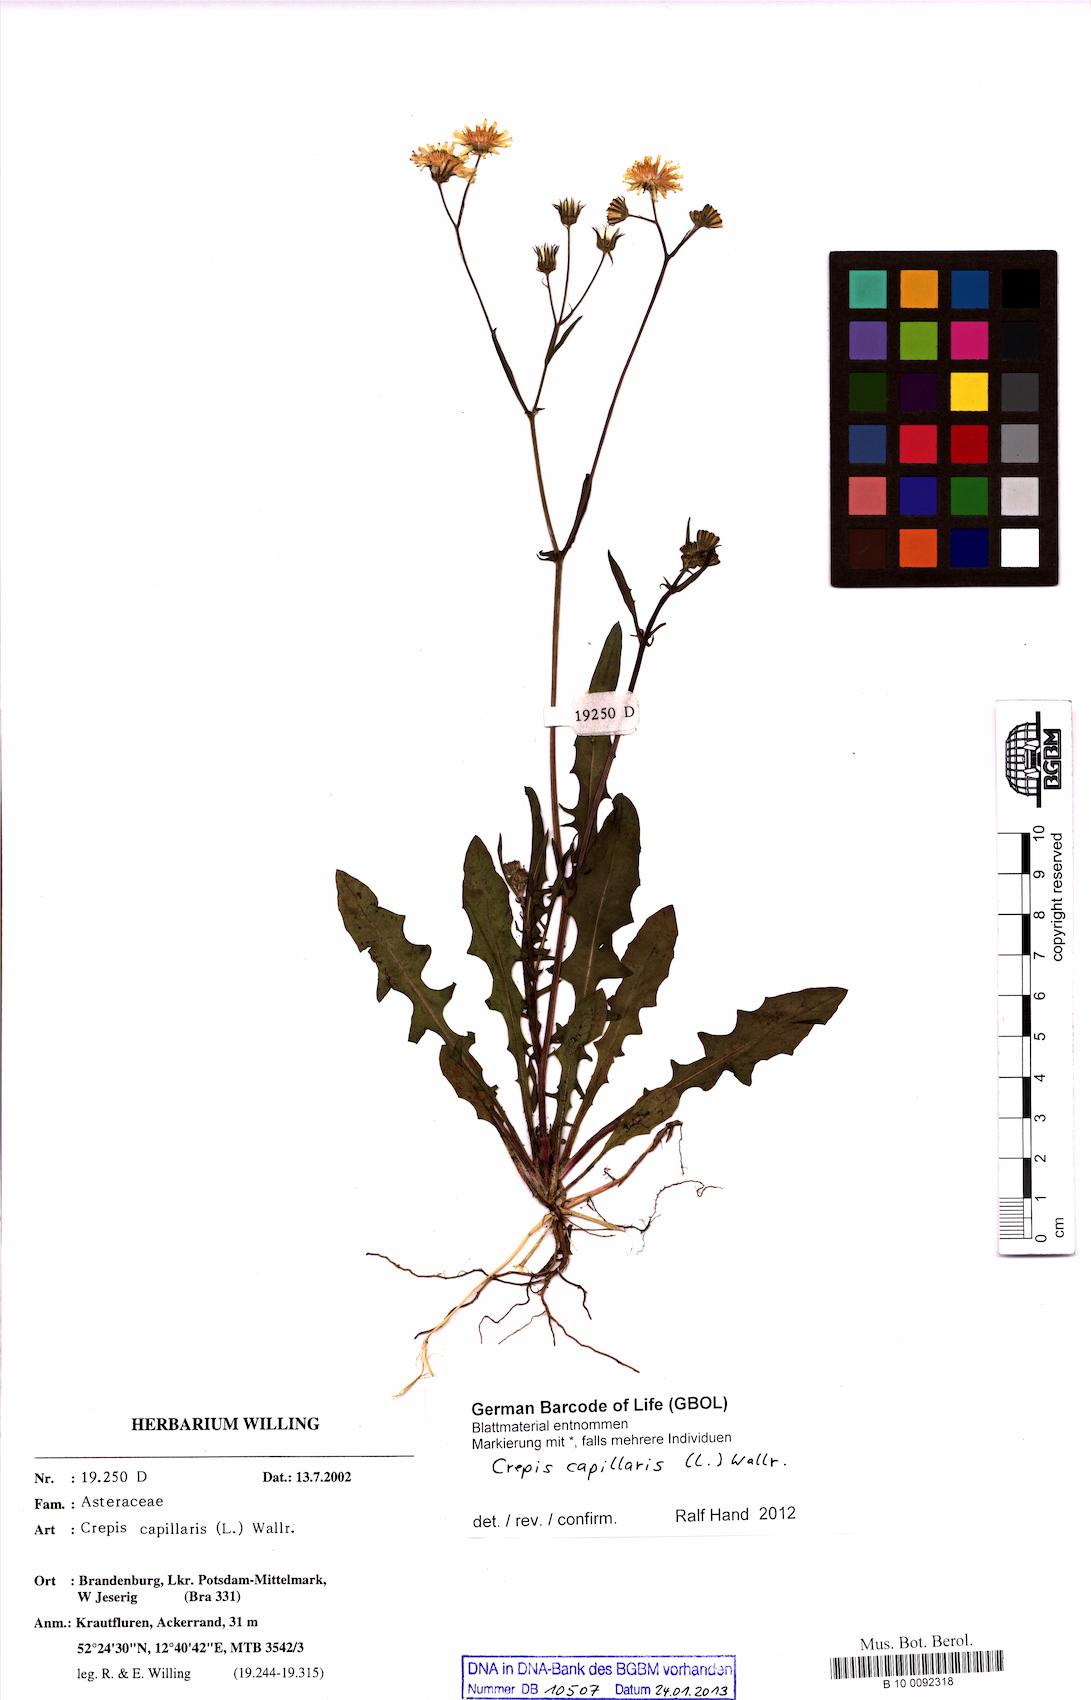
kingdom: Plantae
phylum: Tracheophyta
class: Magnoliopsida
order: Asterales
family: Asteraceae
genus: Crepis
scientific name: Crepis capillaris
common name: Smooth hawksbeard
